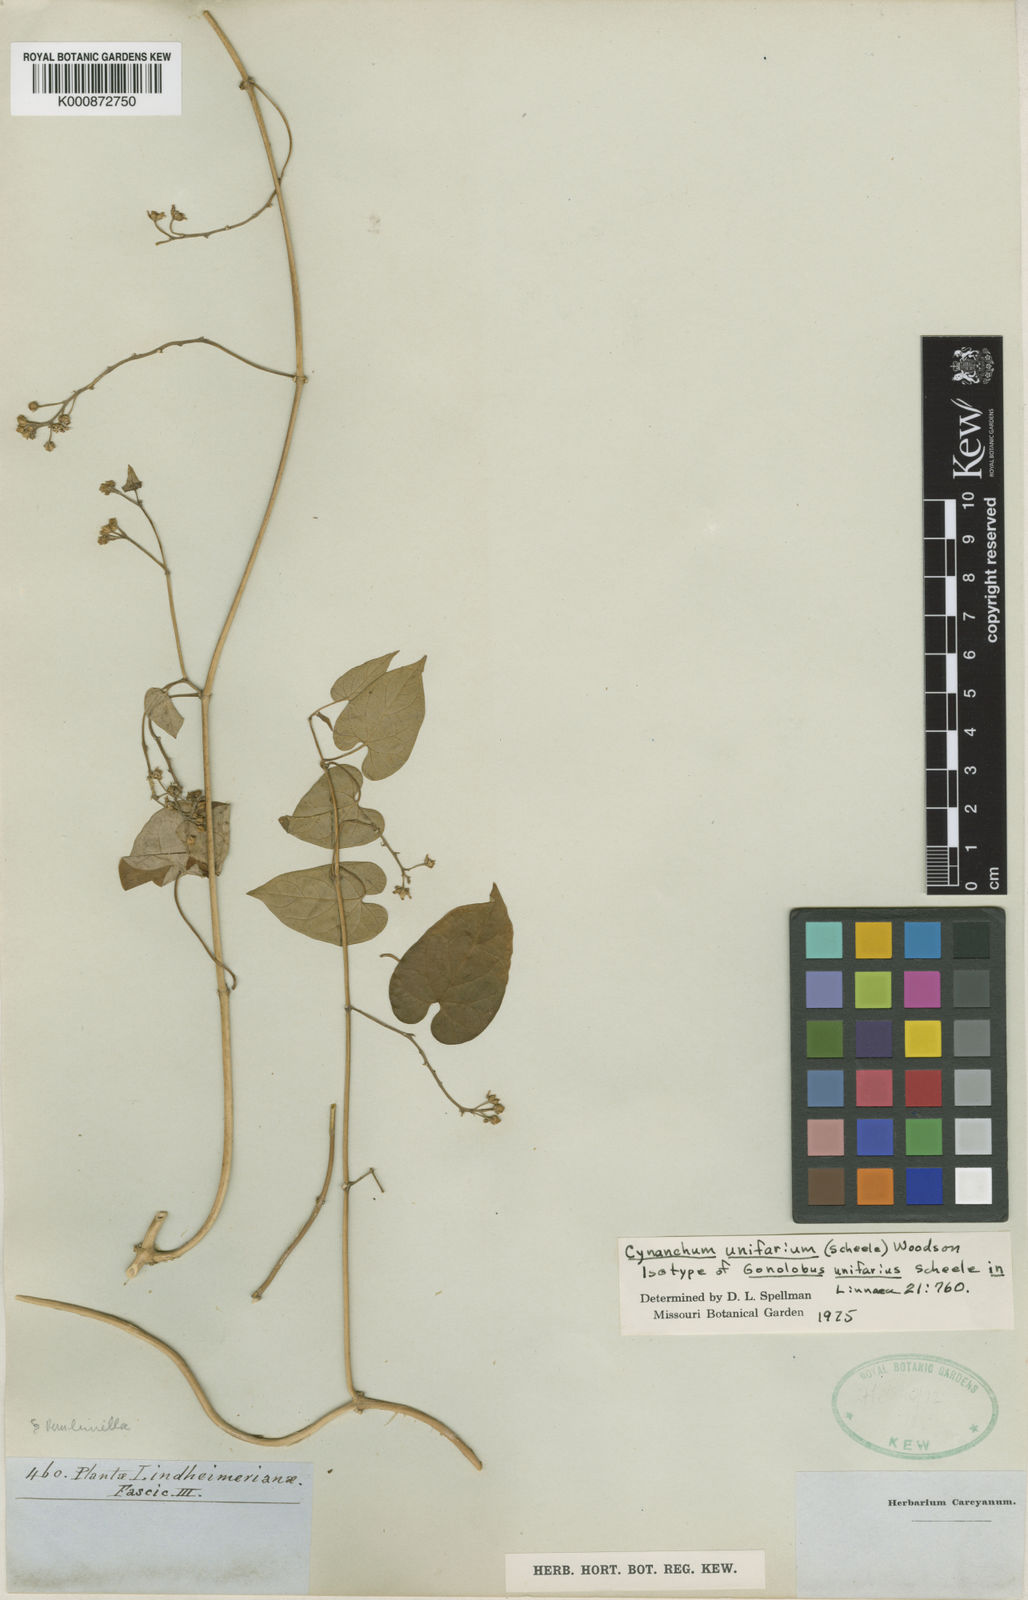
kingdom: Plantae
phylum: Tracheophyta
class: Magnoliopsida
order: Gentianales
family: Apocynaceae
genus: Cynanchum
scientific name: Cynanchum racemosum
